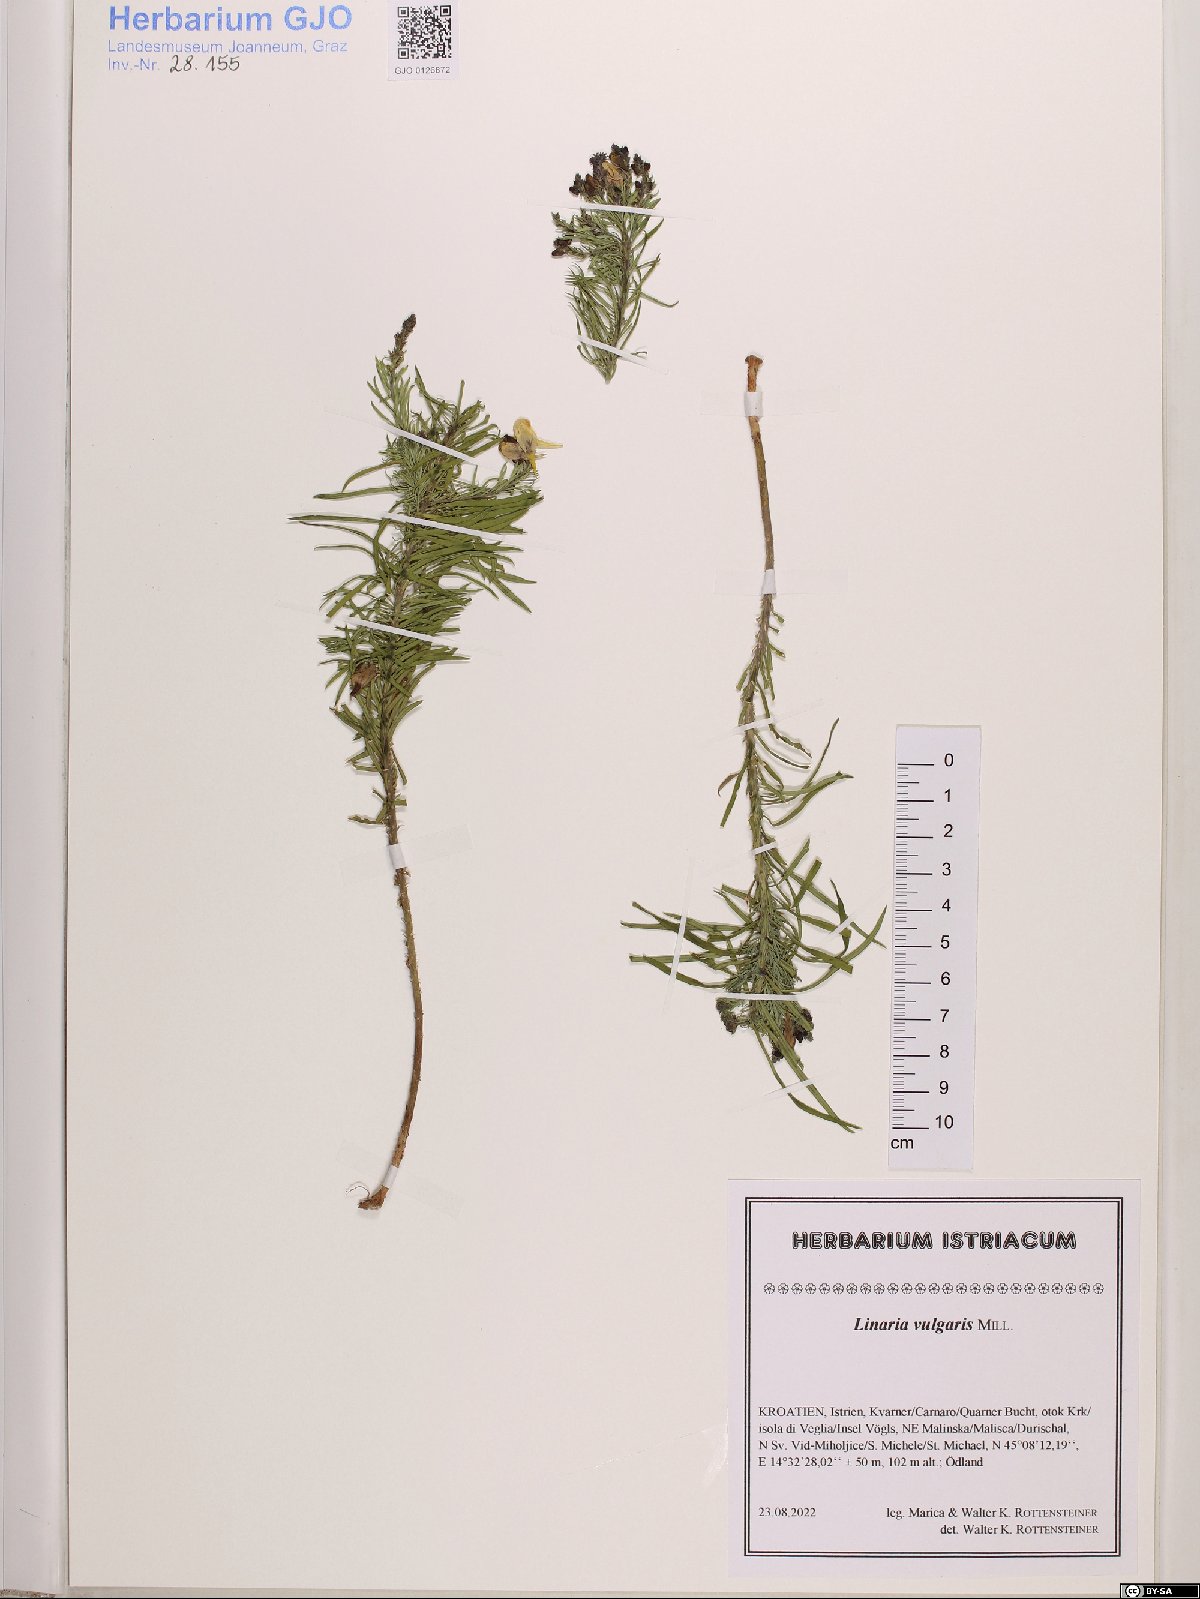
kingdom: Plantae
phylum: Tracheophyta
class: Magnoliopsida
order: Lamiales
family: Plantaginaceae
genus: Linaria
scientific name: Linaria vulgaris
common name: Butter and eggs
